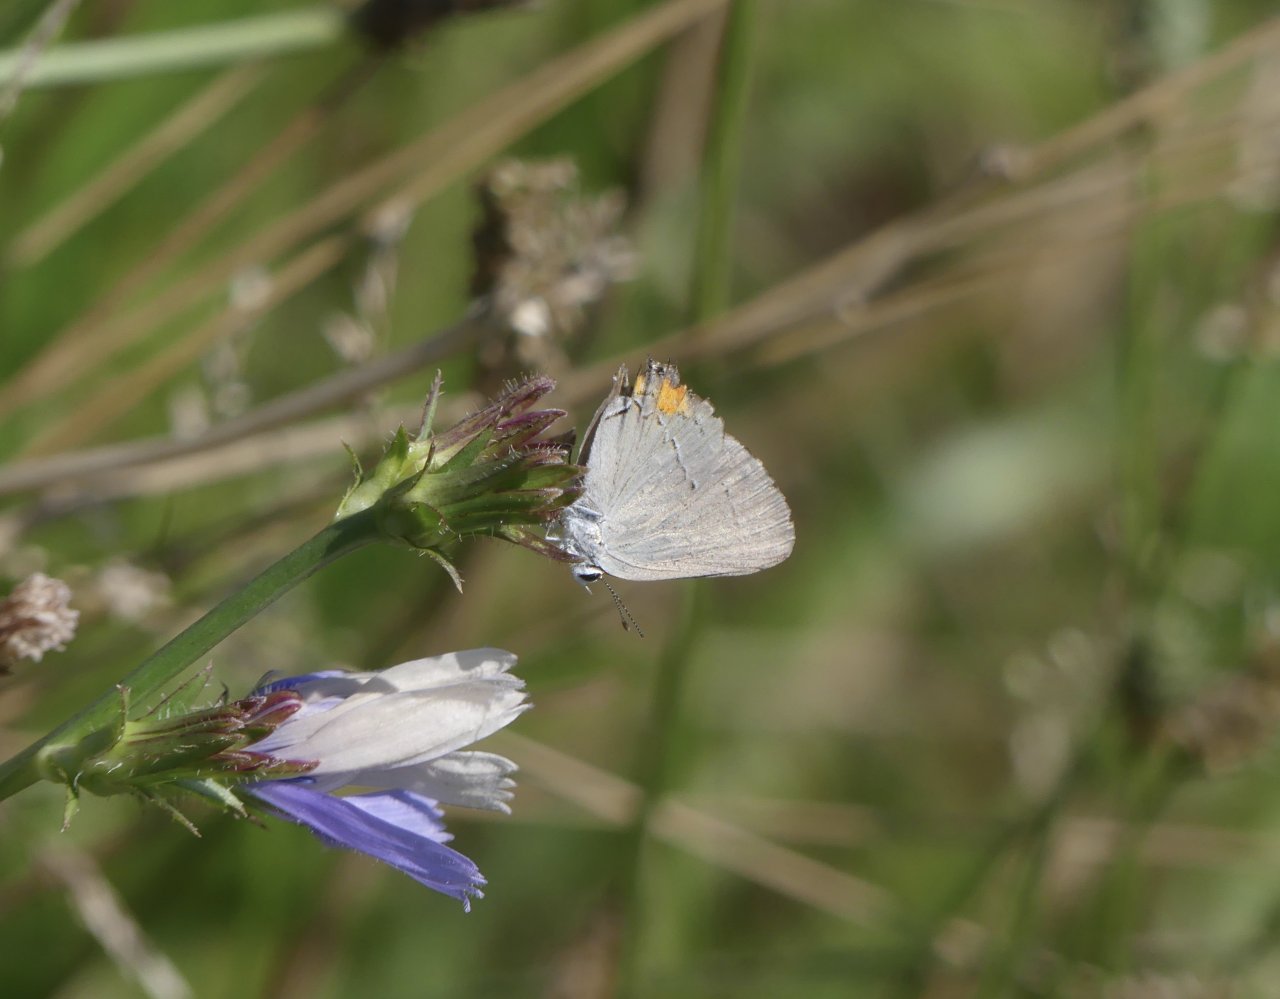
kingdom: Animalia
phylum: Arthropoda
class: Insecta
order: Lepidoptera
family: Lycaenidae
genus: Strymon
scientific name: Strymon melinus
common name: Gray Hairstreak
